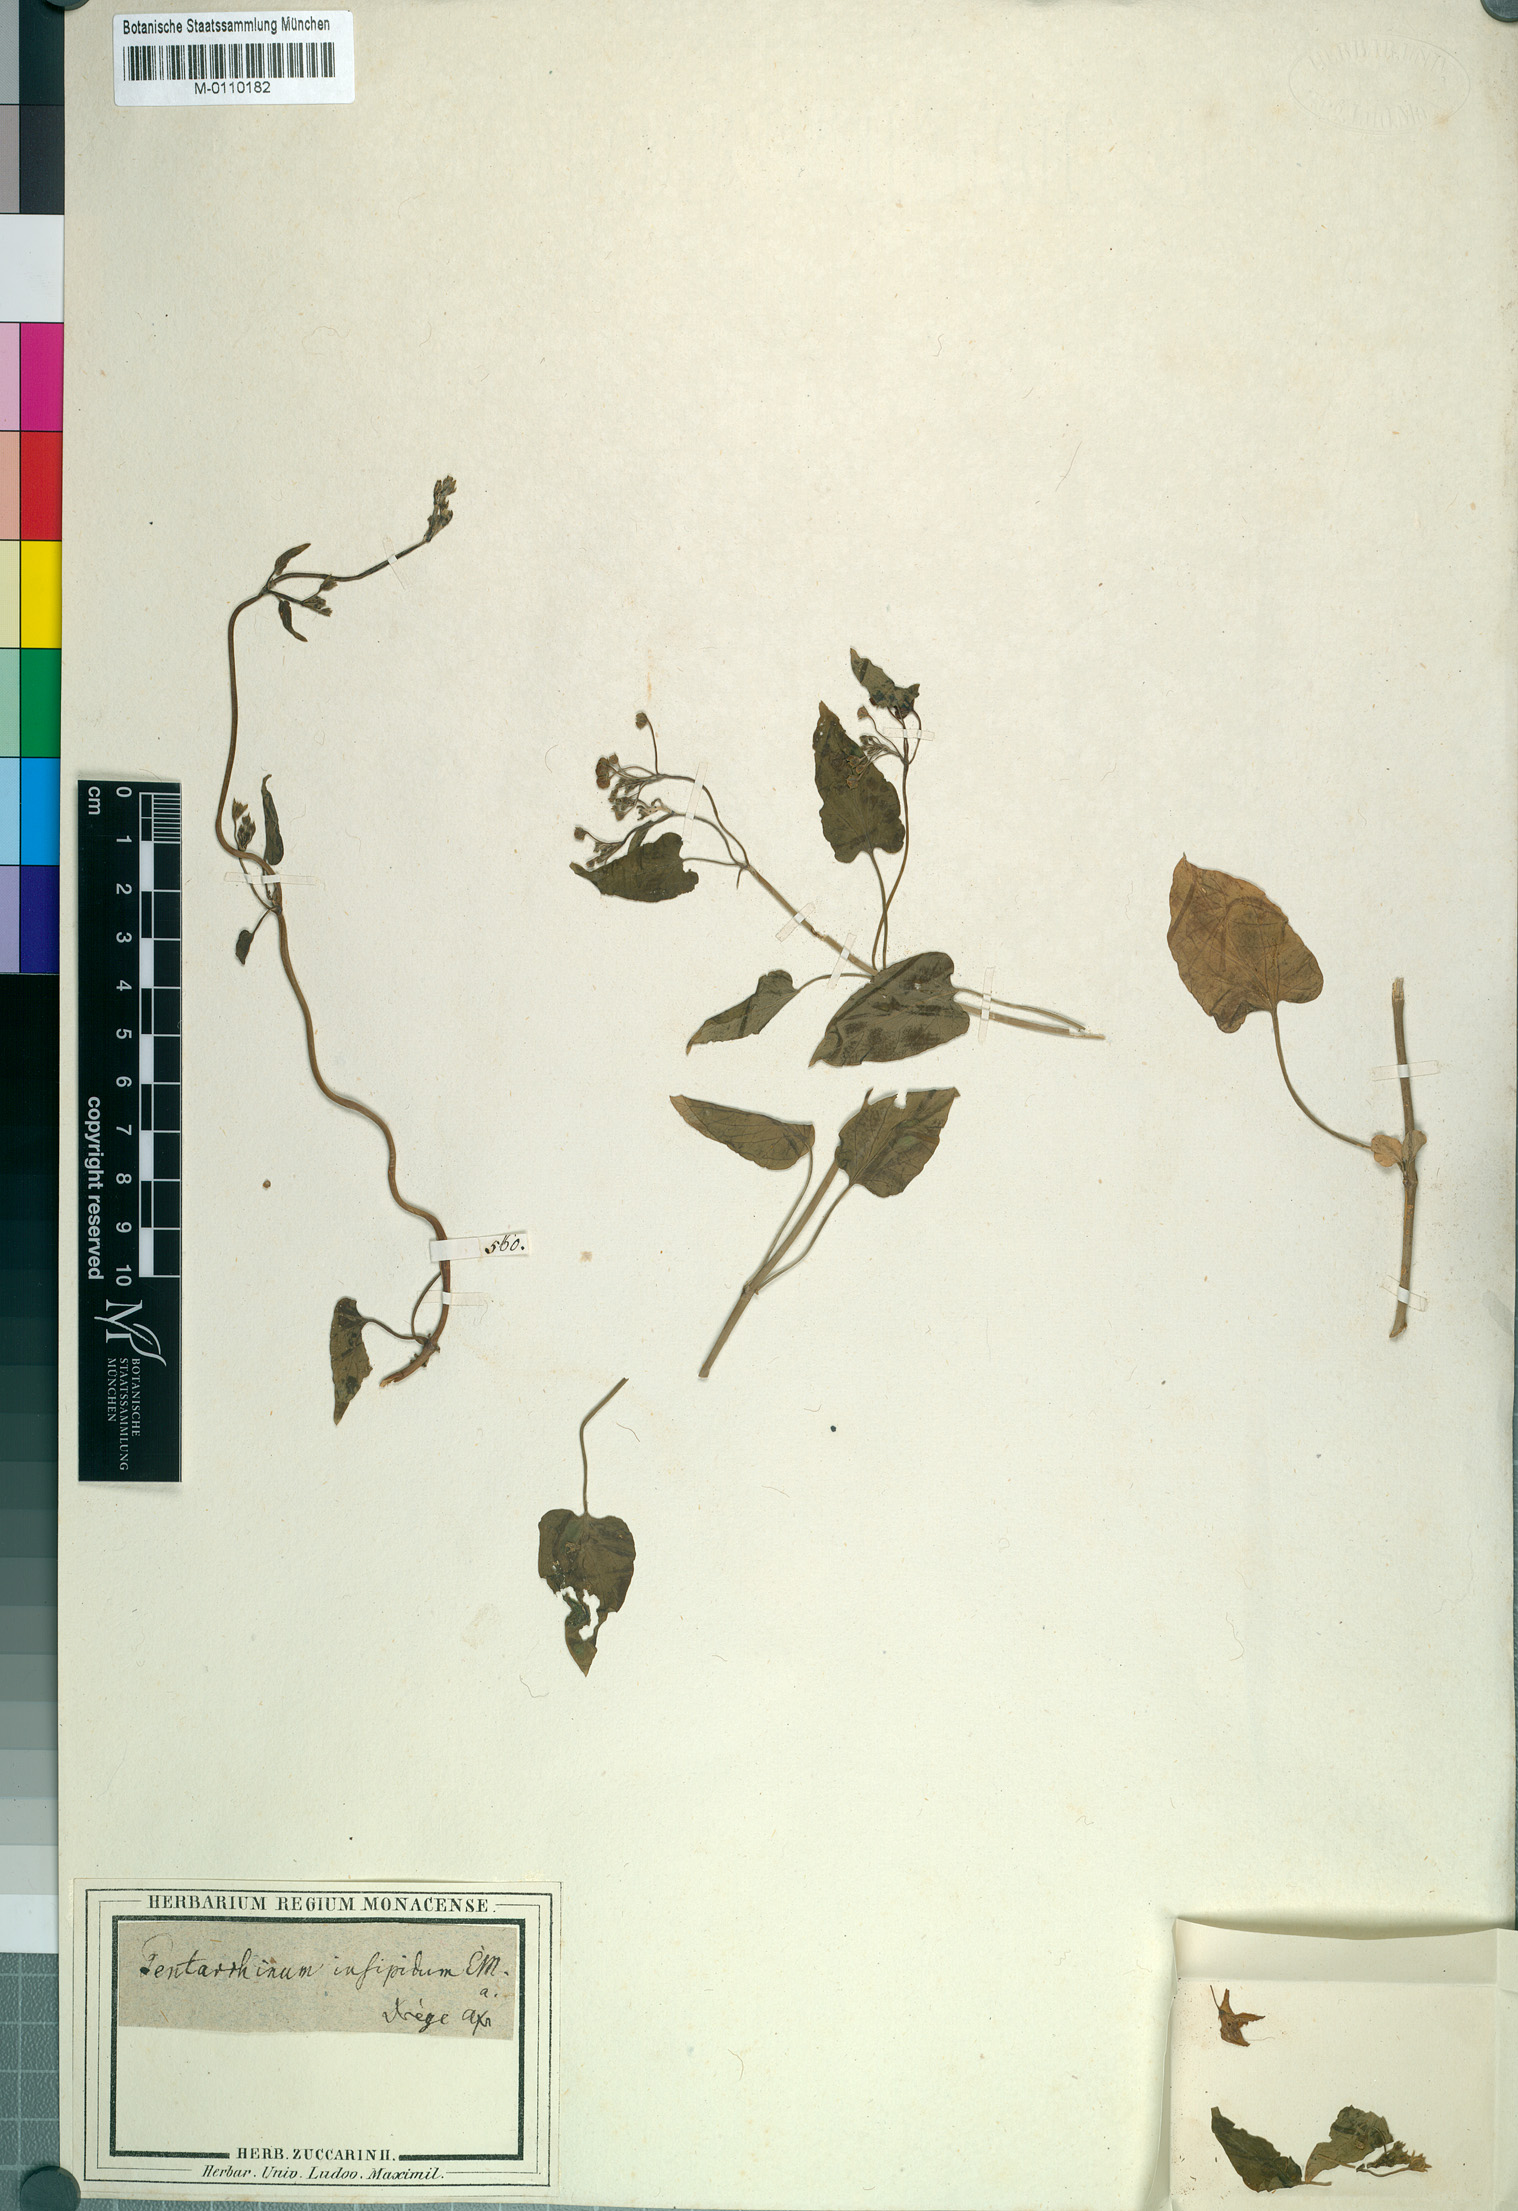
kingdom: Plantae
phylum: Tracheophyta
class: Magnoliopsida
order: Gentianales
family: Apocynaceae
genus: Cynanchum
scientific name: Cynanchum insipidum
